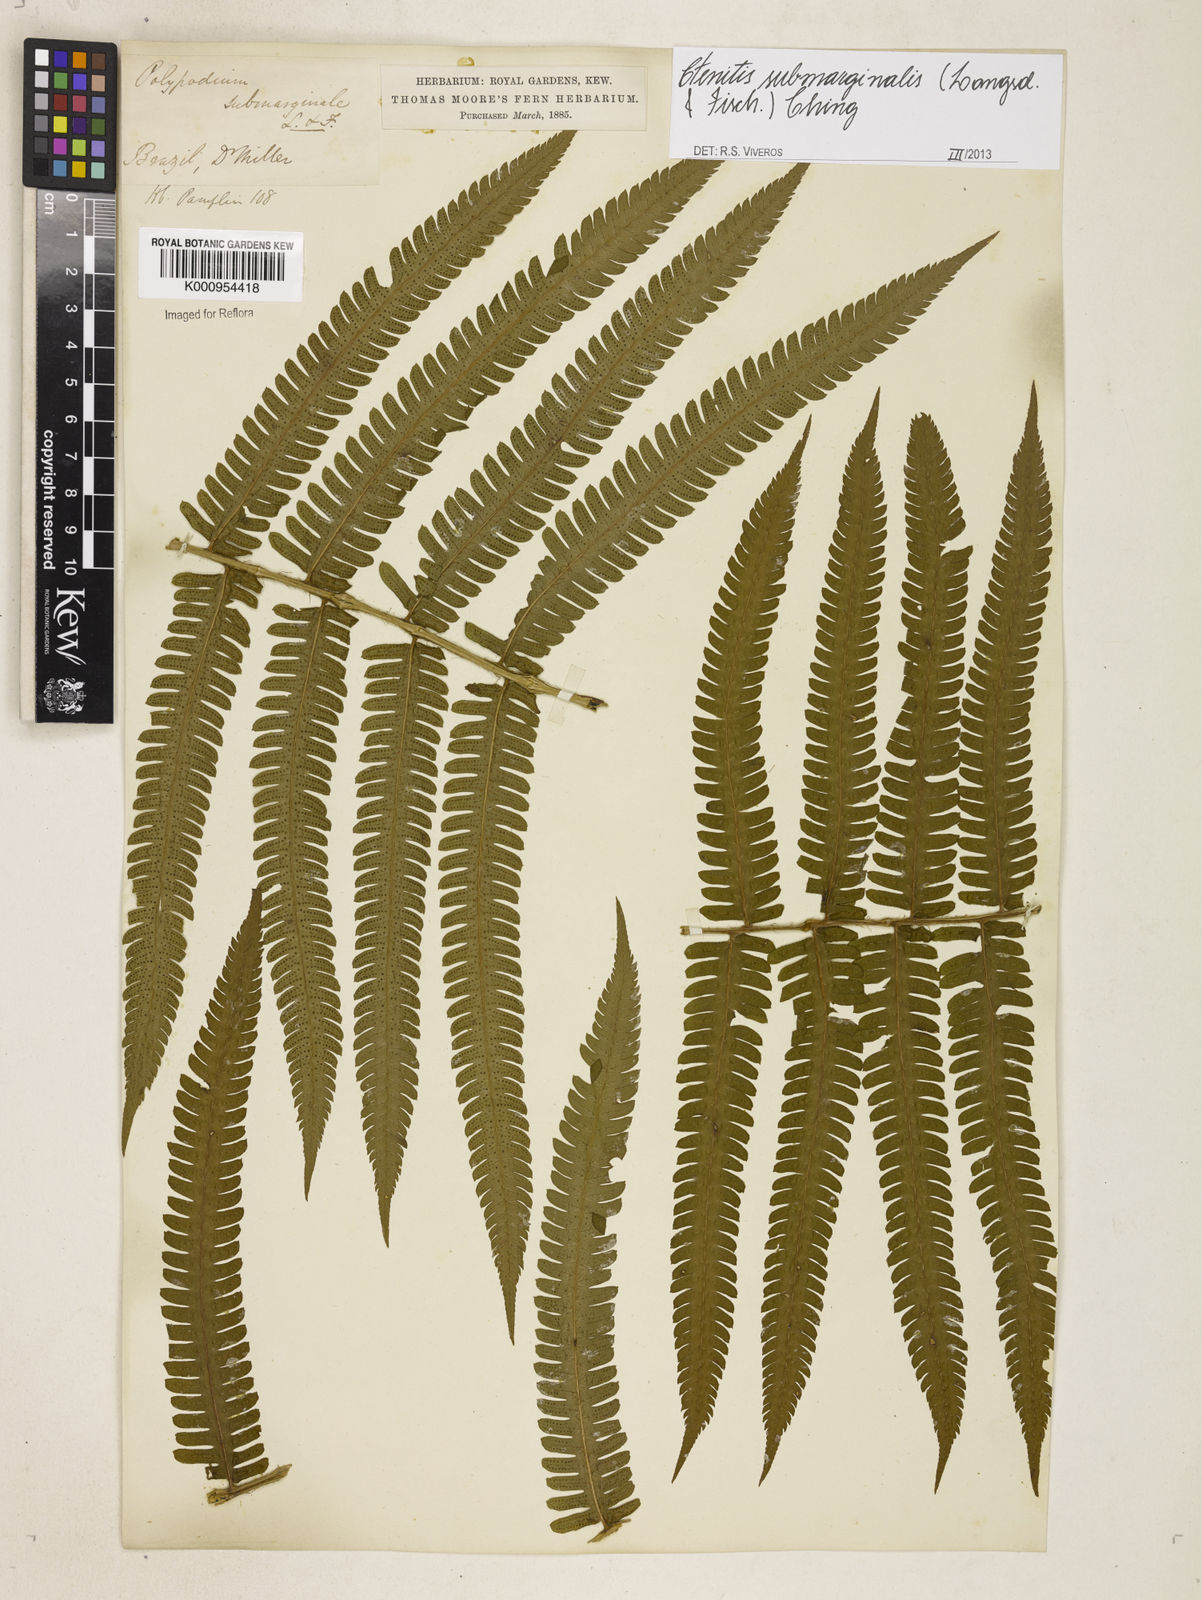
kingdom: Plantae
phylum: Tracheophyta
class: Polypodiopsida
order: Polypodiales
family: Dryopteridaceae
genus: Ctenitis
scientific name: Ctenitis submarginalis
